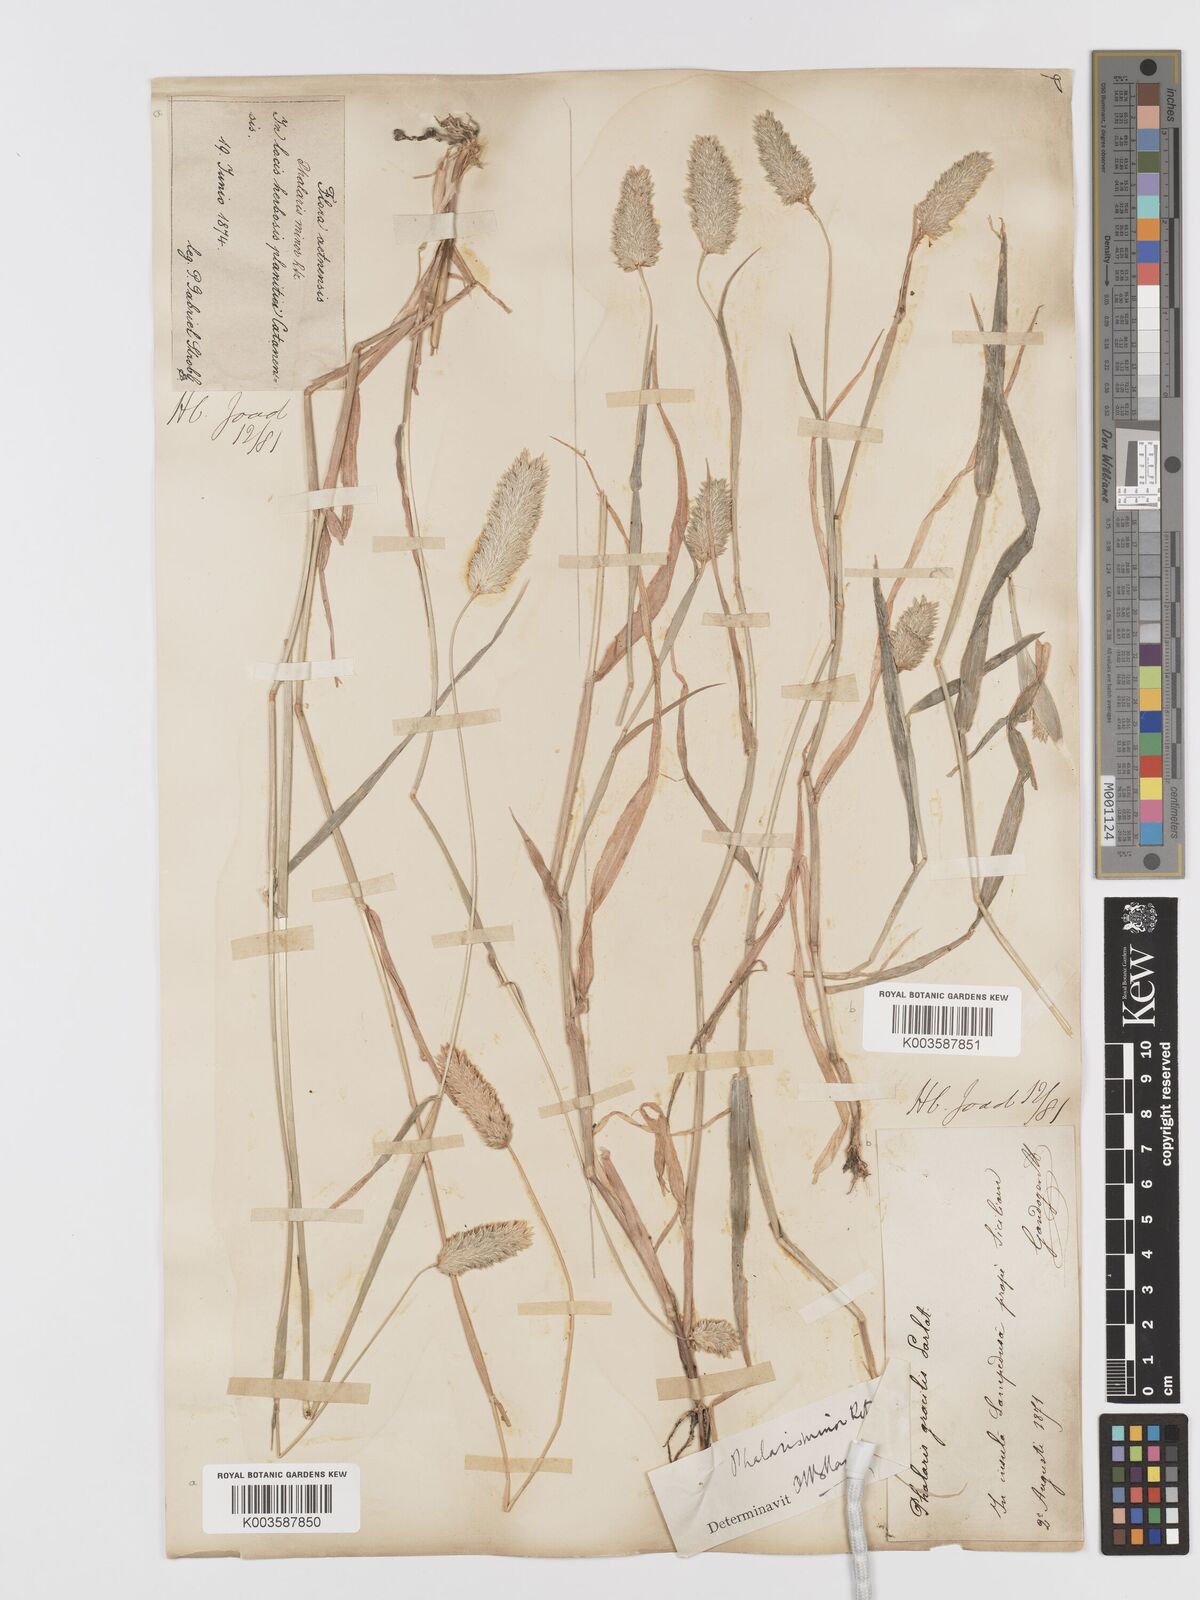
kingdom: Plantae
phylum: Tracheophyta
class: Liliopsida
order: Poales
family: Poaceae
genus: Phalaris
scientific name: Phalaris minor
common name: Littleseed canarygrass
